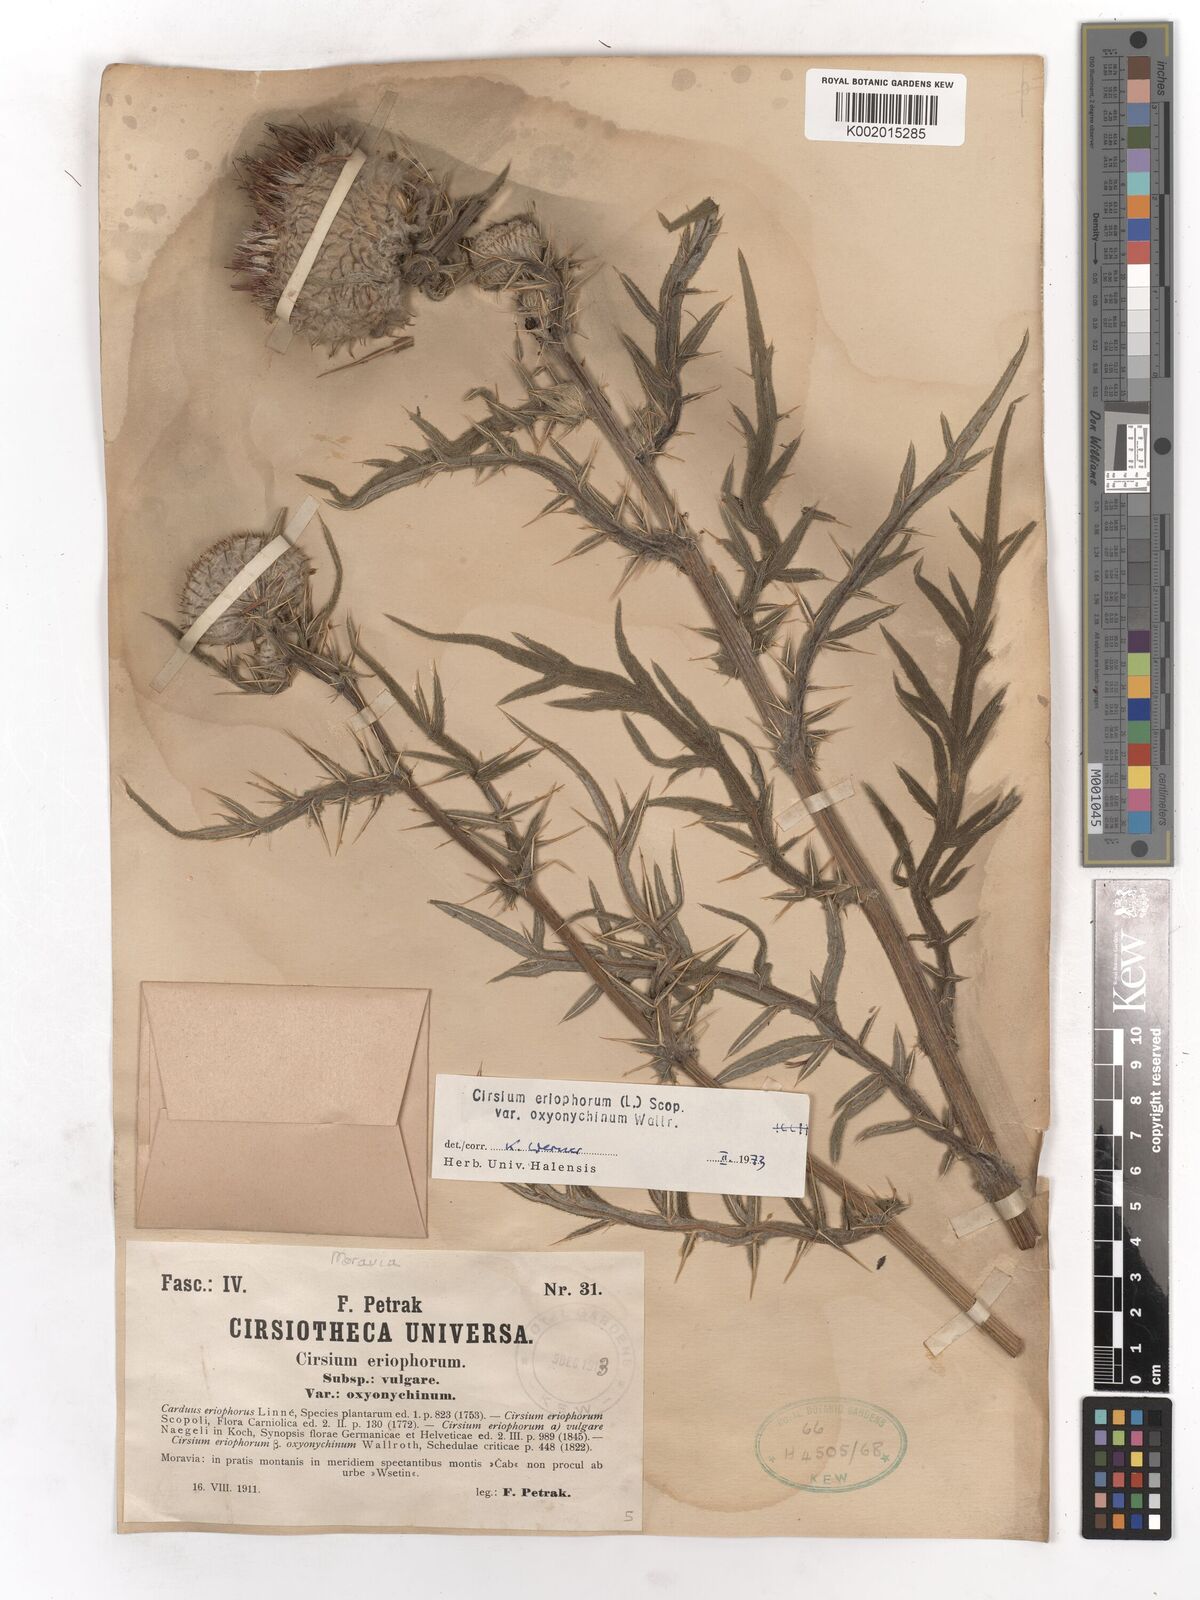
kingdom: Plantae
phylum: Tracheophyta
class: Magnoliopsida
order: Asterales
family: Asteraceae
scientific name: Asteraceae
